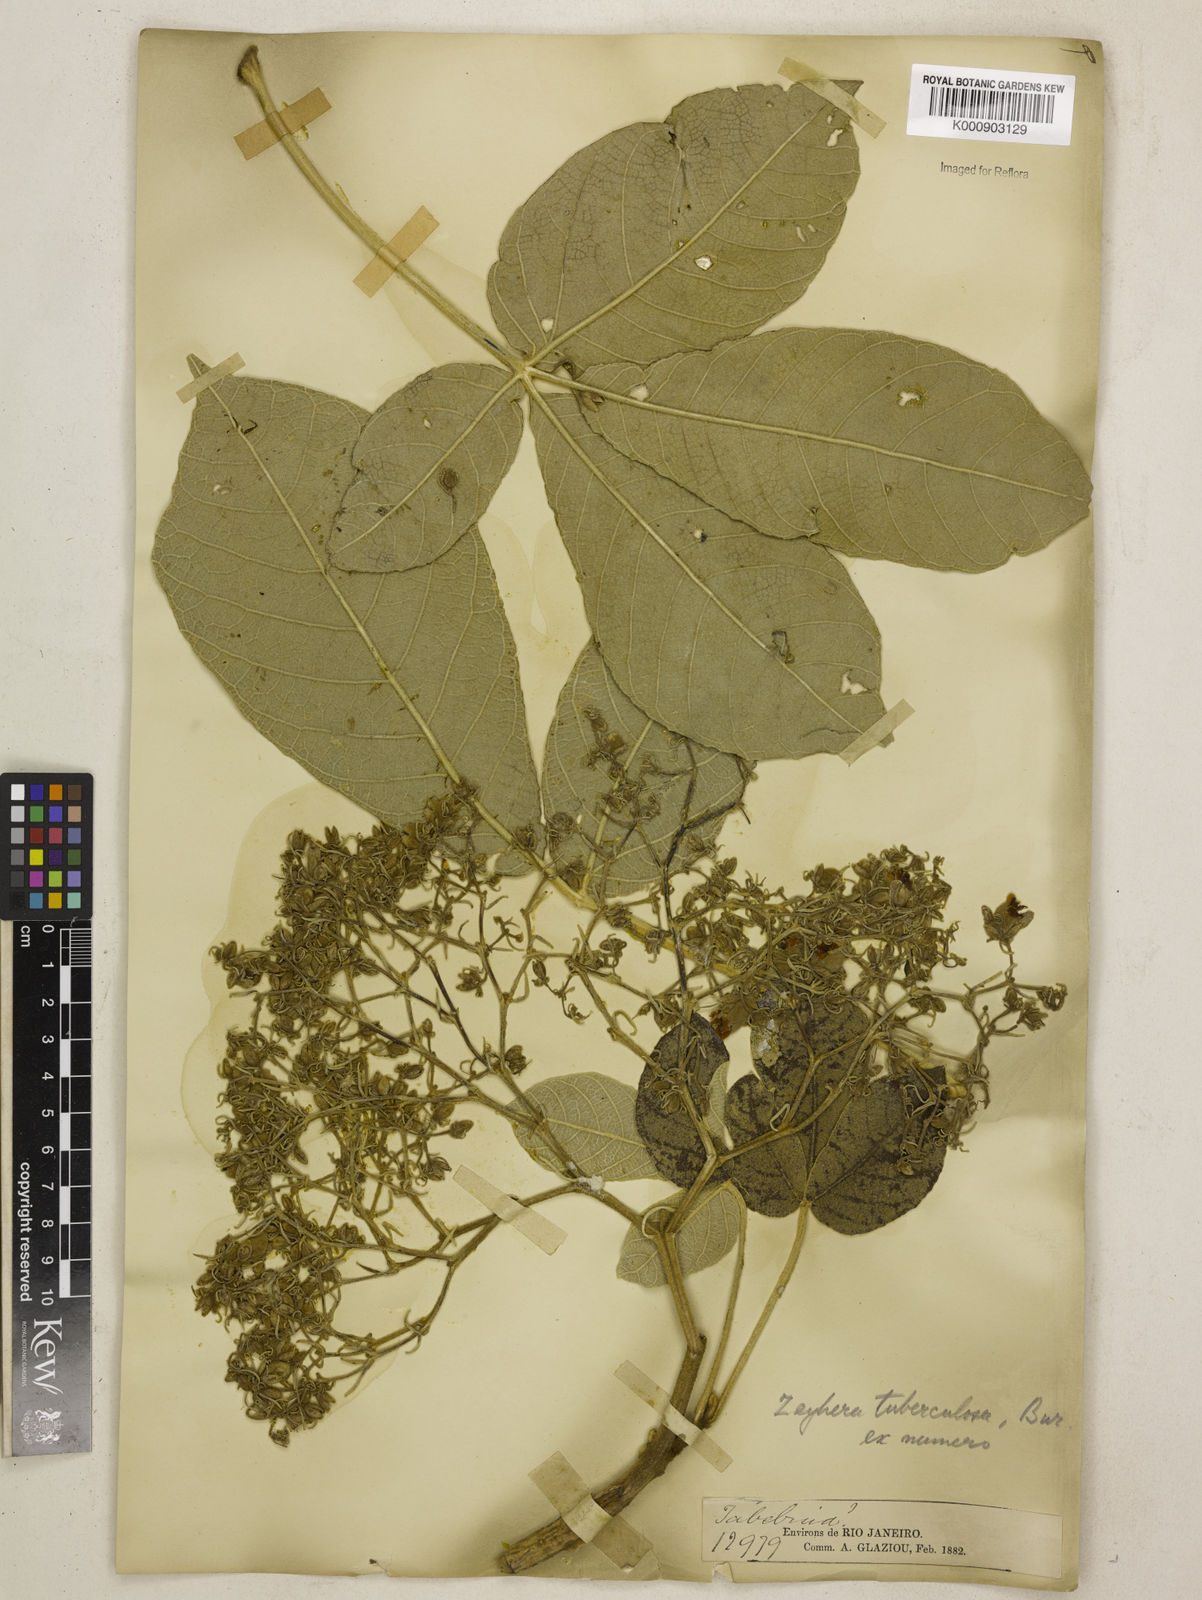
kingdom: Plantae
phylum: Tracheophyta
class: Magnoliopsida
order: Lamiales
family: Bignoniaceae
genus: Zeyheria
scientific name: Zeyheria
